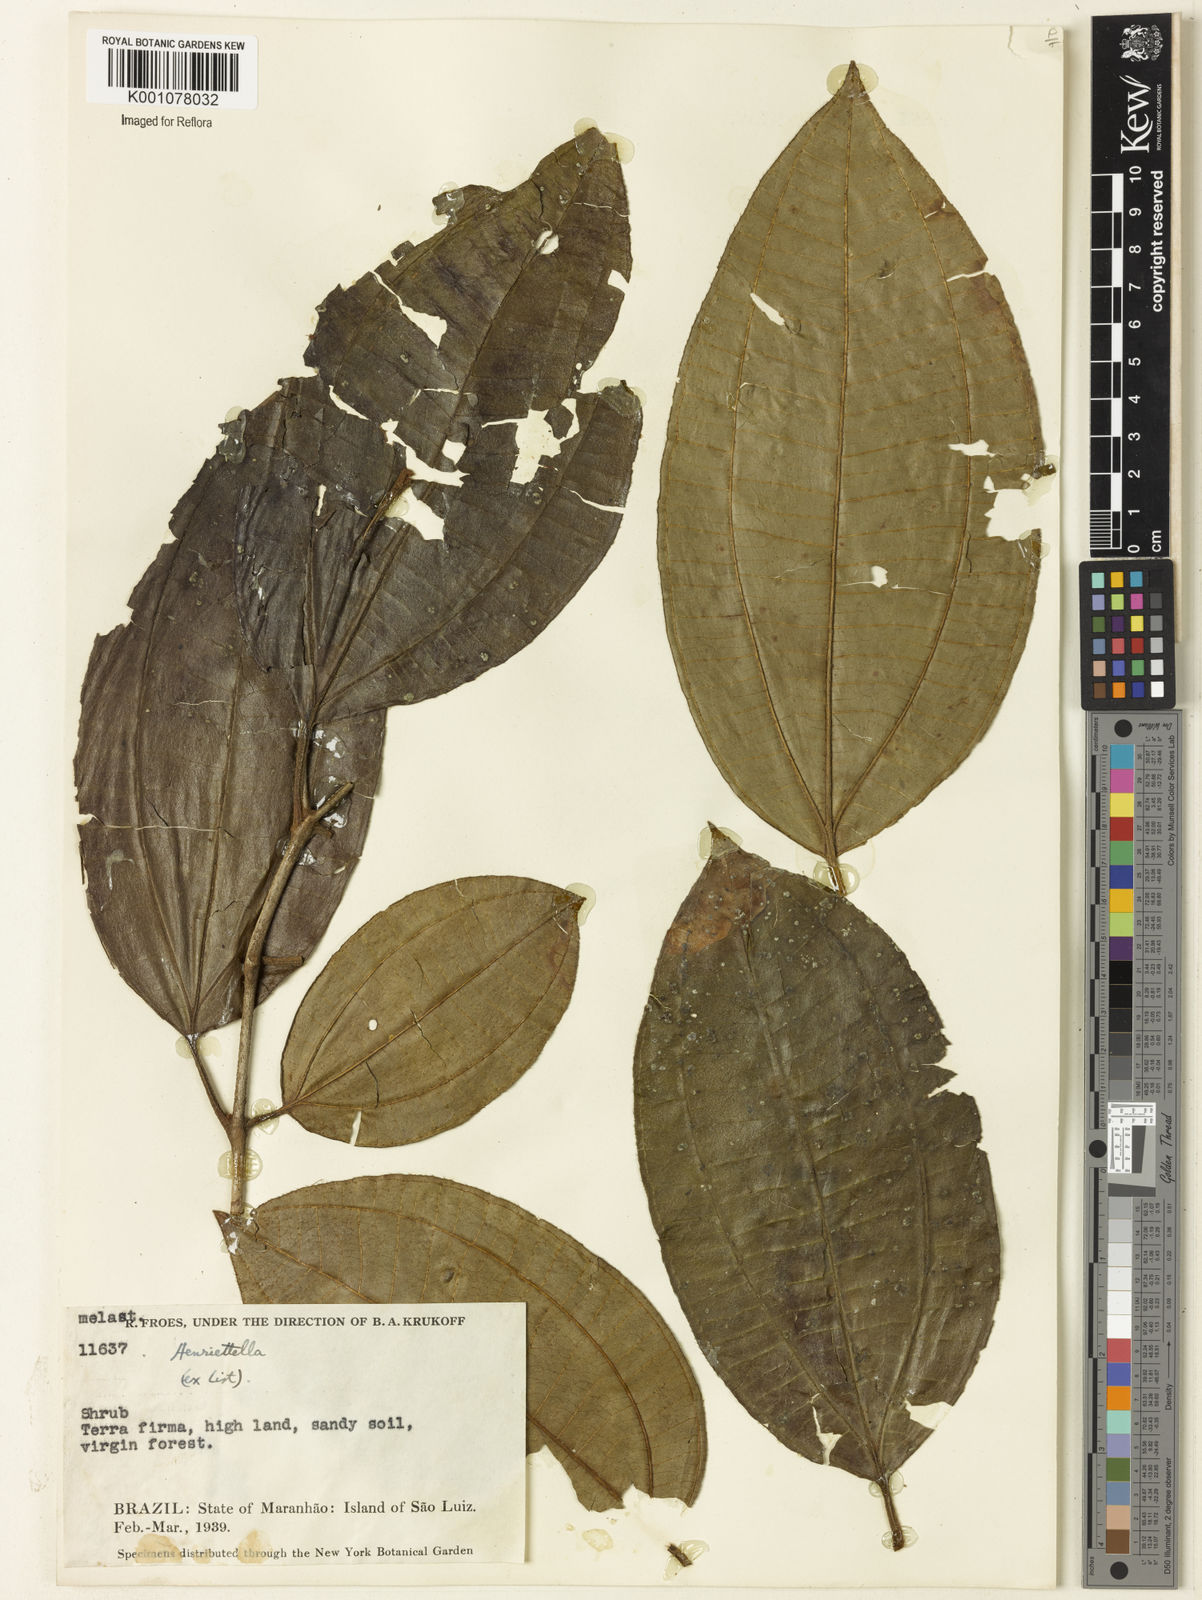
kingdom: Plantae
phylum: Tracheophyta
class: Magnoliopsida
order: Myrtales
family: Melastomataceae
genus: Henriettea
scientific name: Henriettea
